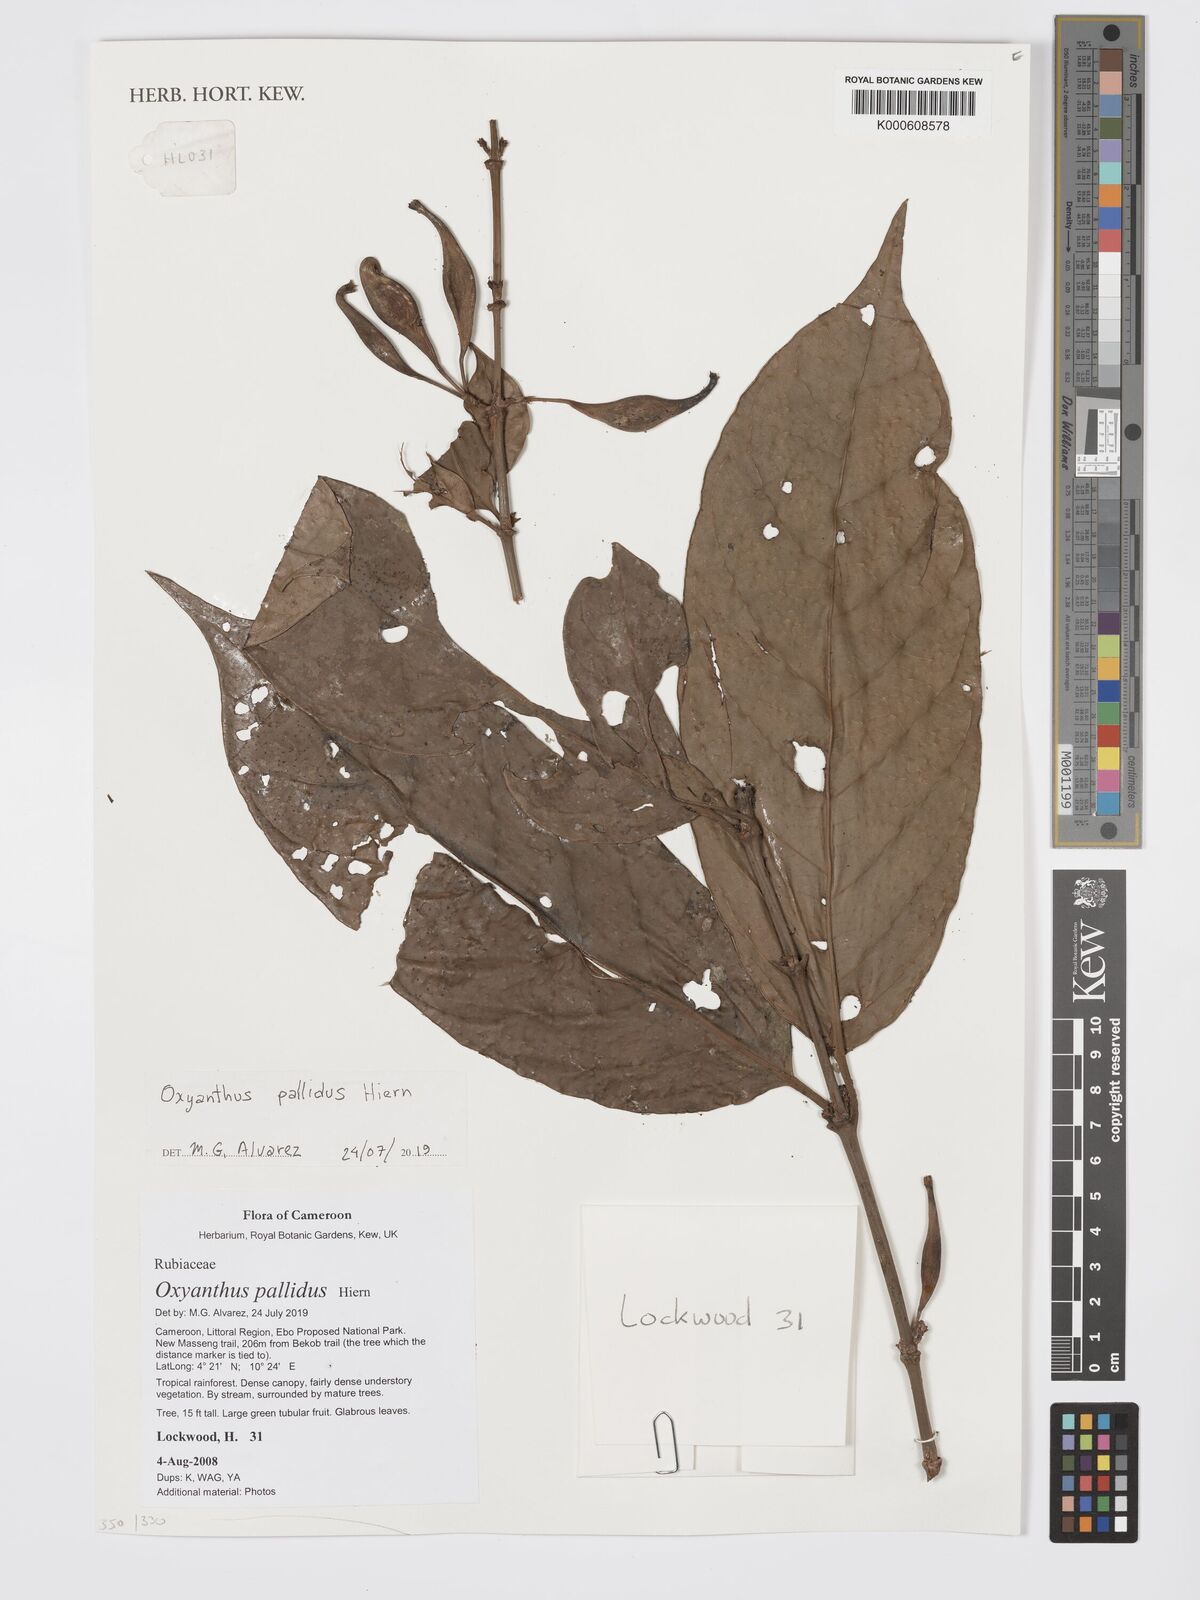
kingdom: Plantae
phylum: Tracheophyta
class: Magnoliopsida
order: Gentianales
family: Rubiaceae
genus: Petitiocodon
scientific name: Petitiocodon parviflorum
